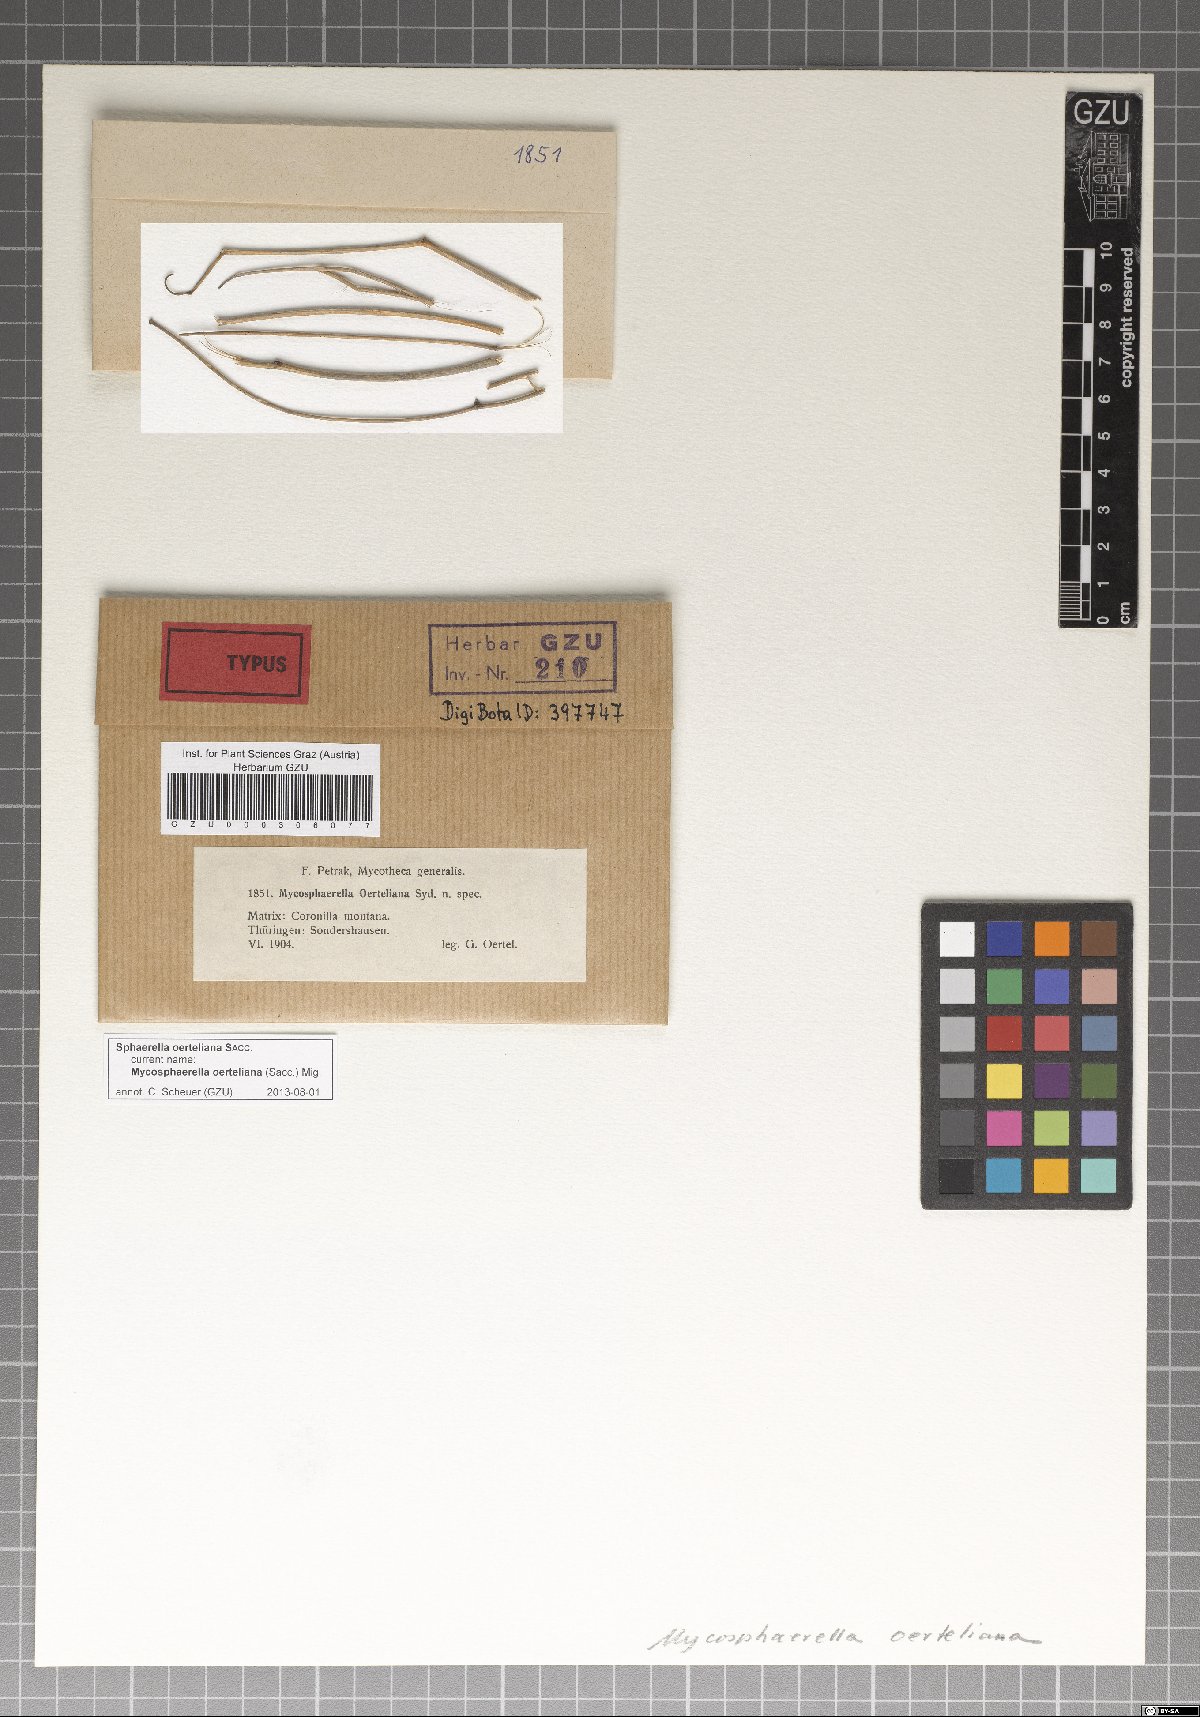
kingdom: Fungi
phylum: Ascomycota
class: Dothideomycetes
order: Mycosphaerellales
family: Mycosphaerellaceae
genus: Mycosphaerella
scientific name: Mycosphaerella oerteliana
